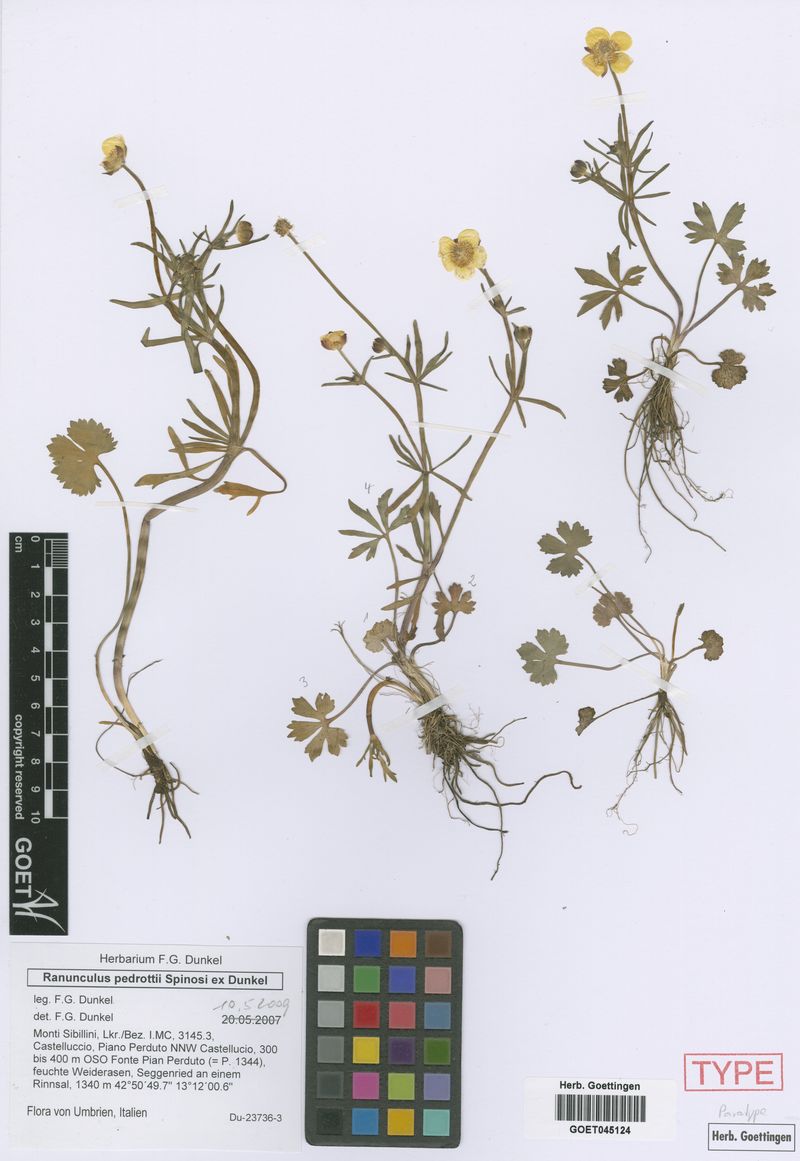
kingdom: Plantae
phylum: Tracheophyta
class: Magnoliopsida
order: Ranunculales
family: Ranunculaceae
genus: Ranunculus
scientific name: Ranunculus pedrottii
